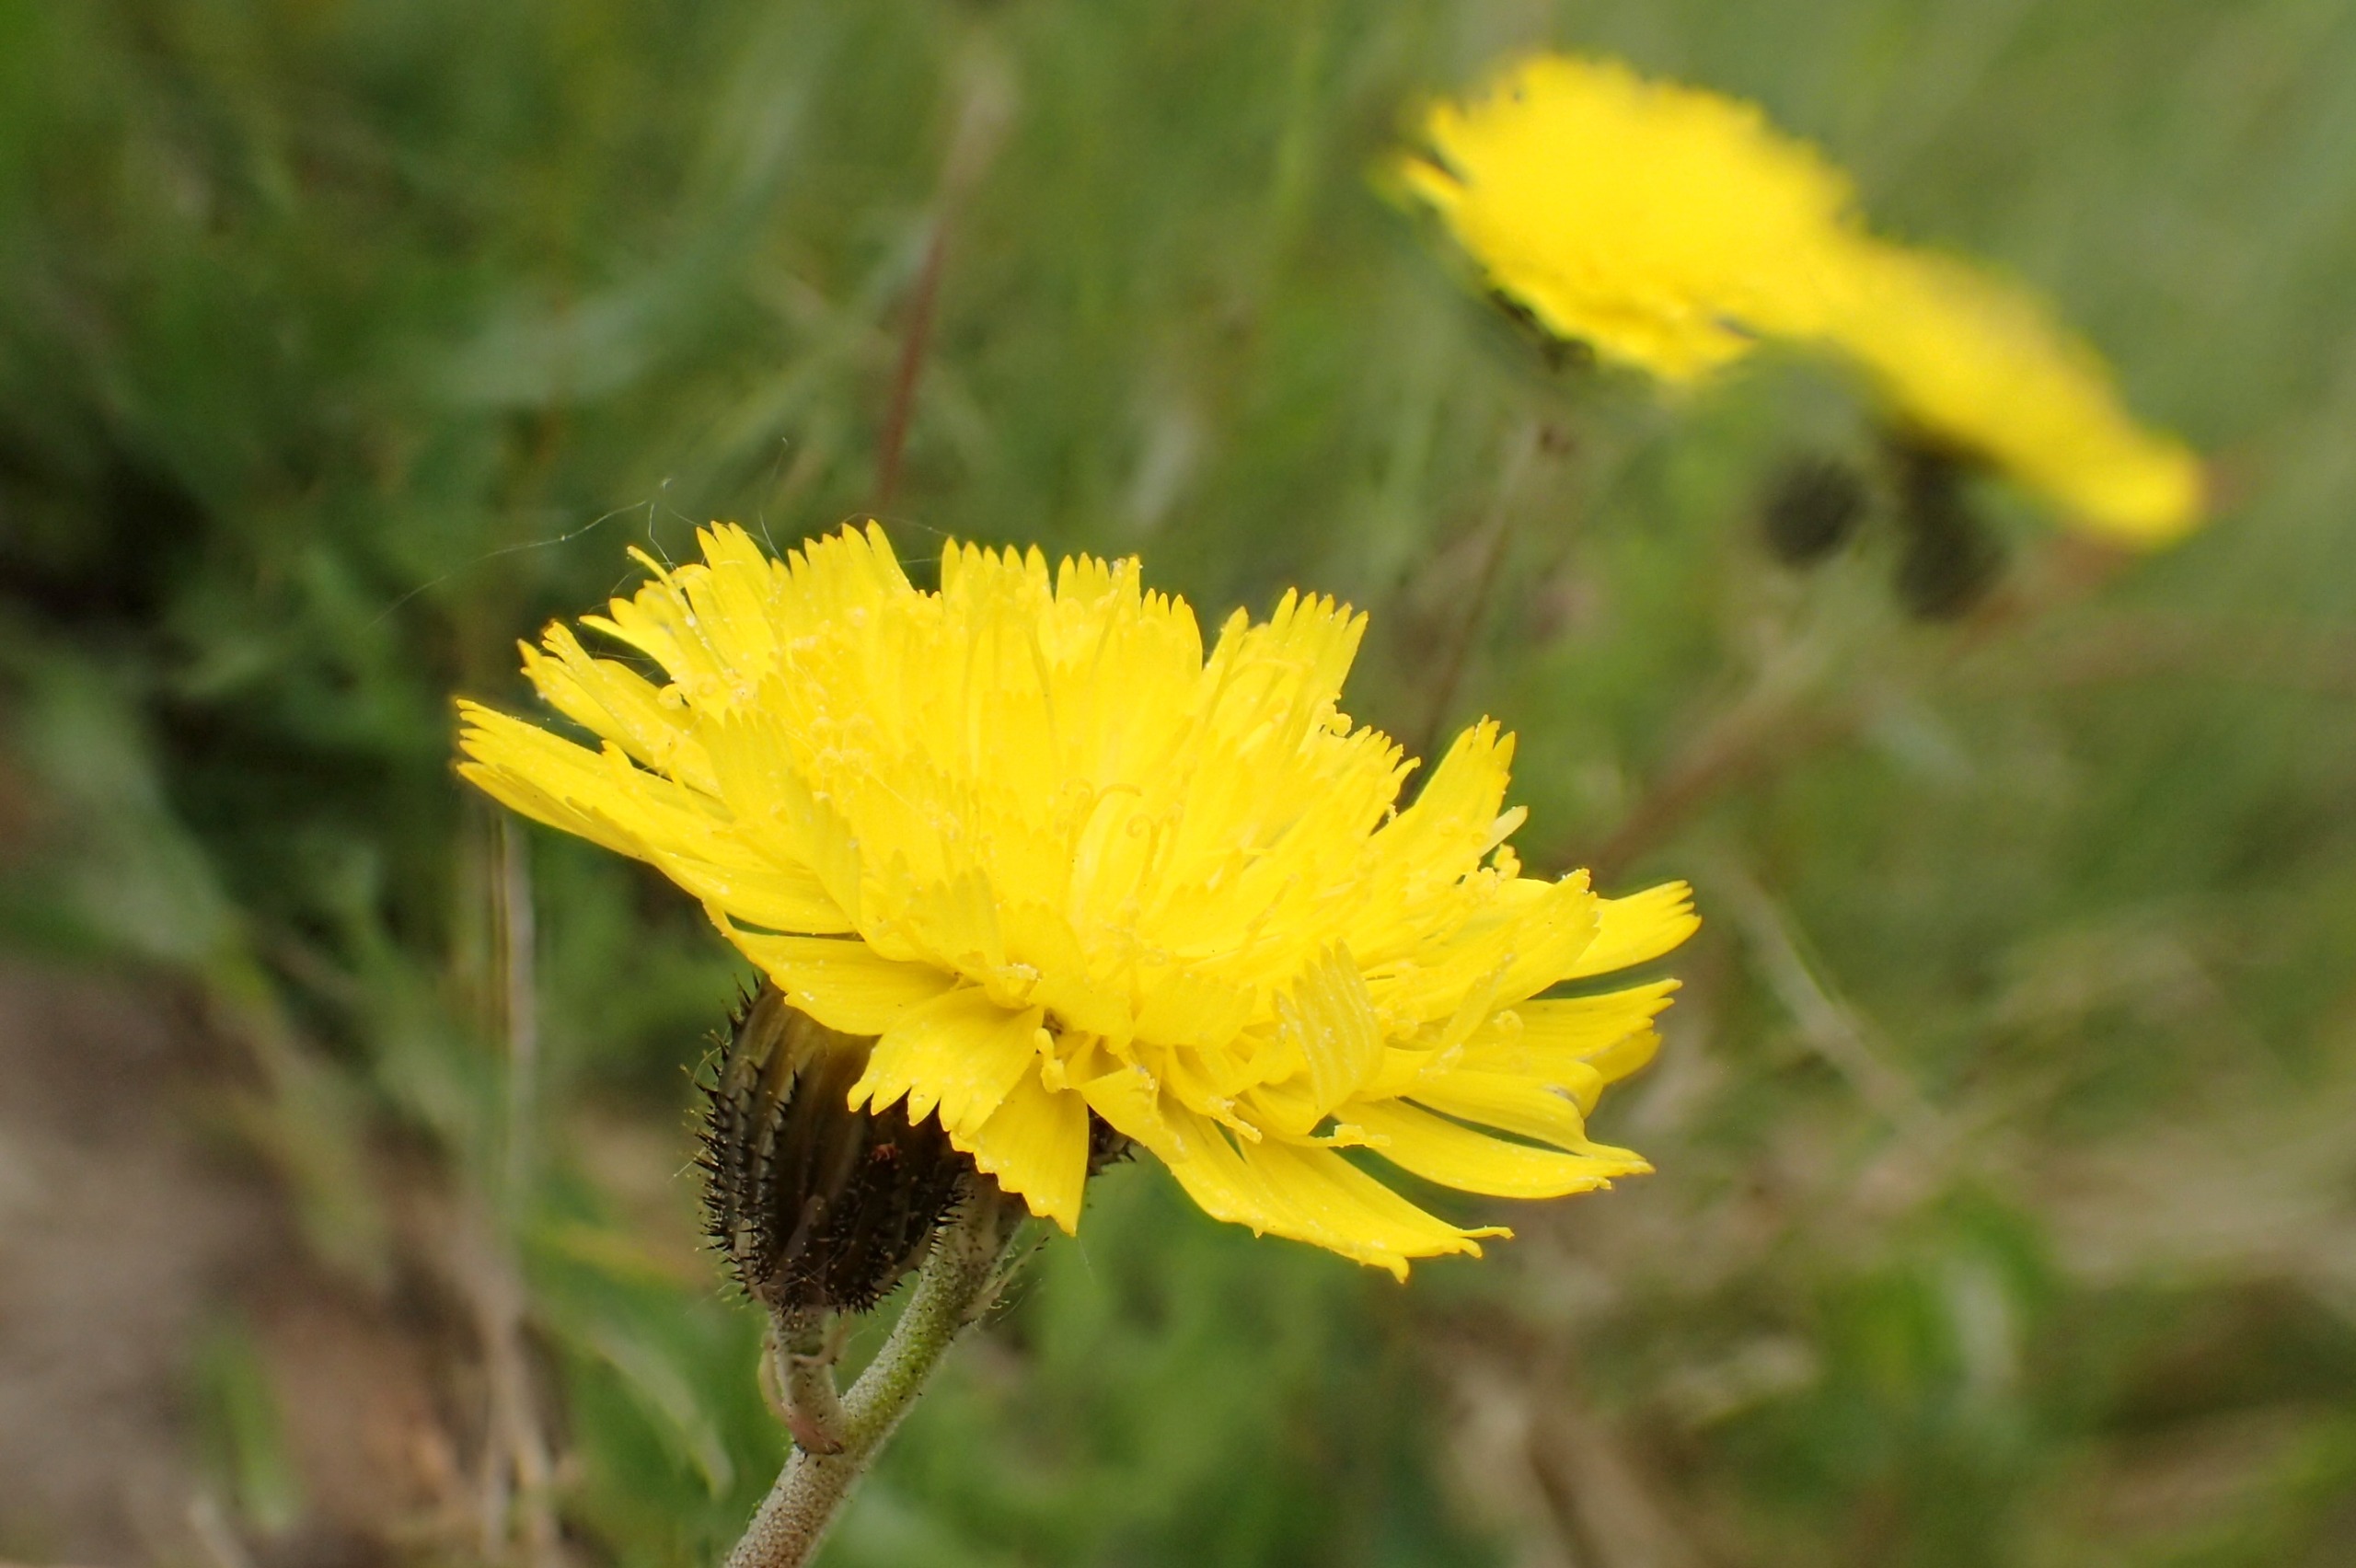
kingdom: Plantae
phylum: Tracheophyta
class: Magnoliopsida
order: Asterales
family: Asteraceae
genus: Pilosella
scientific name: Pilosella lactucella
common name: Lancetbladet høgeurt
